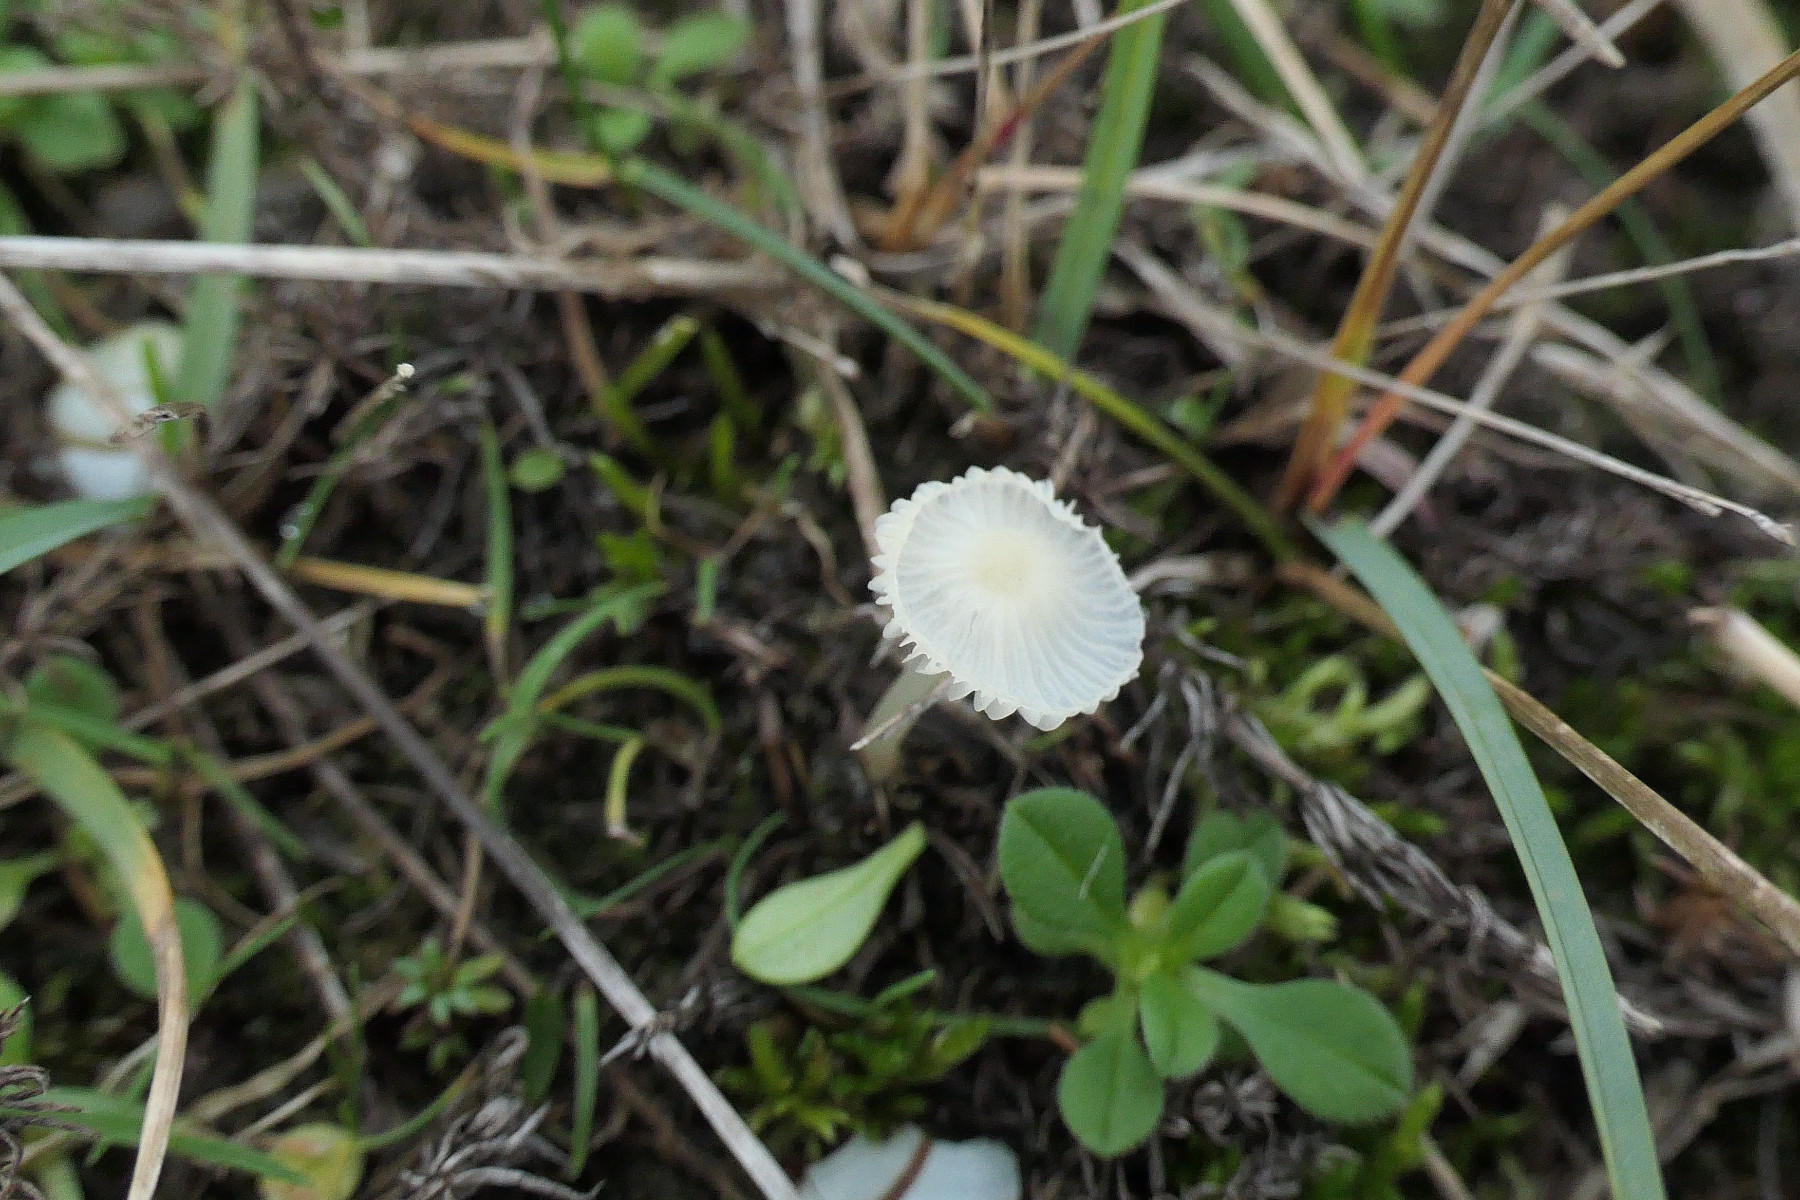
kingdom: Fungi
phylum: Basidiomycota
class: Agaricomycetes
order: Agaricales
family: Mycenaceae
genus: Atheniella
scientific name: Atheniella flavoalba
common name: gulhvid huesvamp
